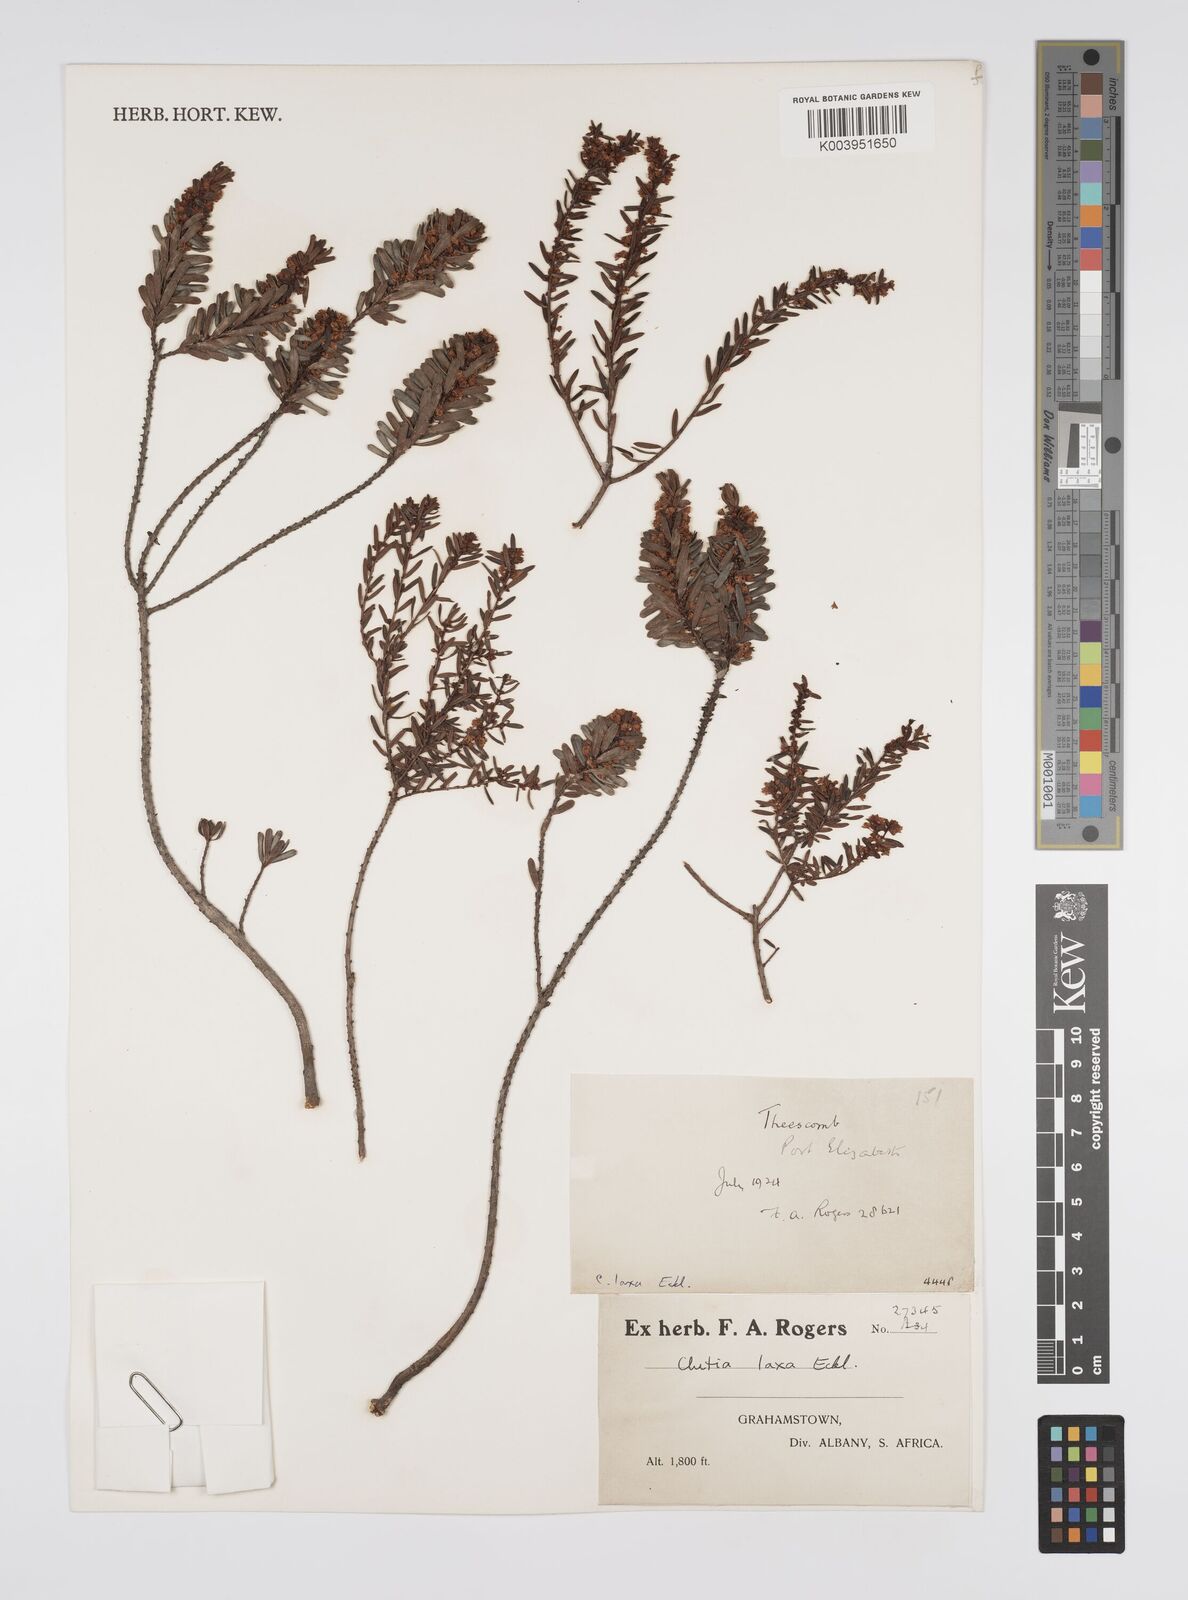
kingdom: Plantae
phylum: Tracheophyta
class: Magnoliopsida
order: Malpighiales
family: Peraceae
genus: Clutia
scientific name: Clutia laxa
